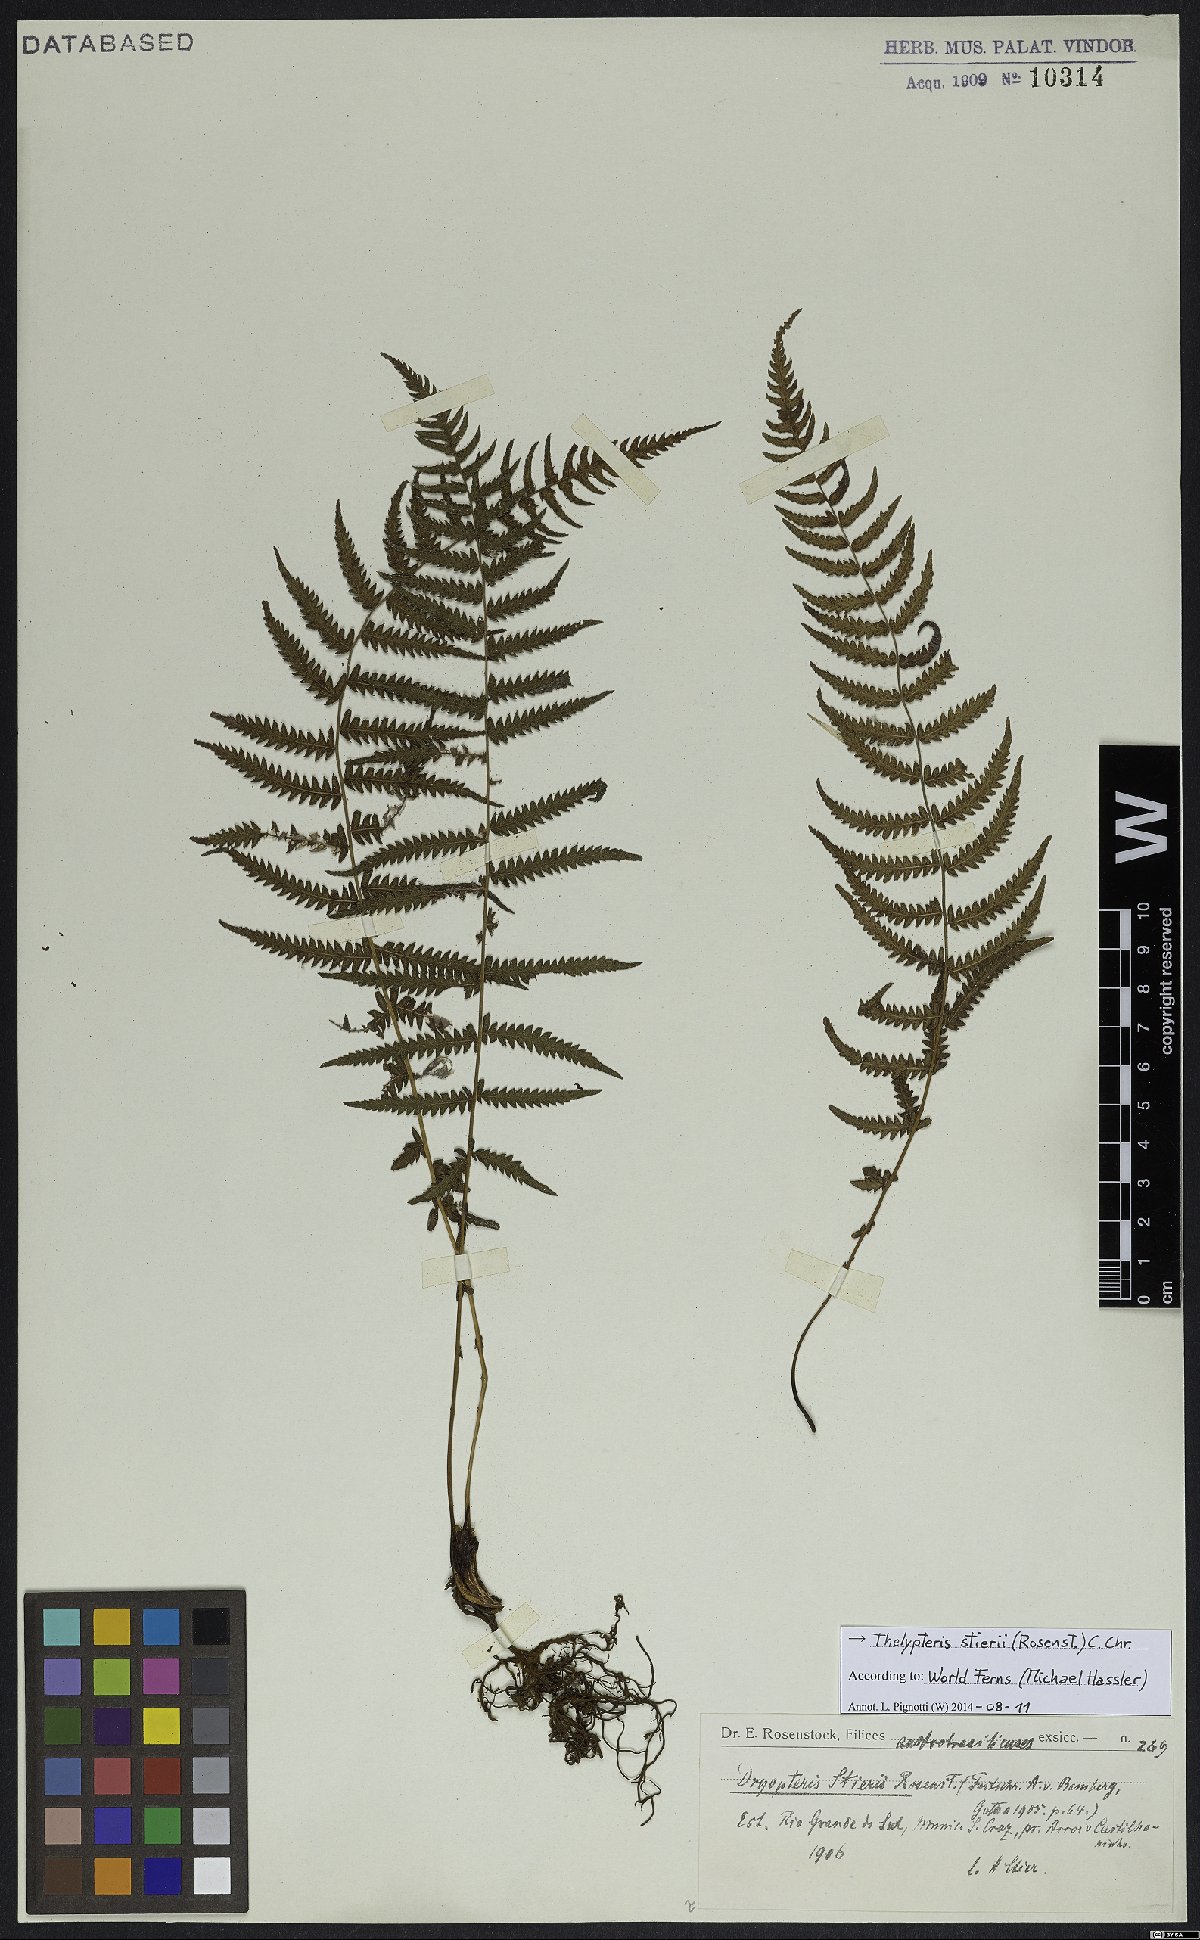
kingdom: Plantae
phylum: Tracheophyta
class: Polypodiopsida
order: Polypodiales
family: Thelypteridaceae
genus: Amauropelta
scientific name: Amauropelta stierii
